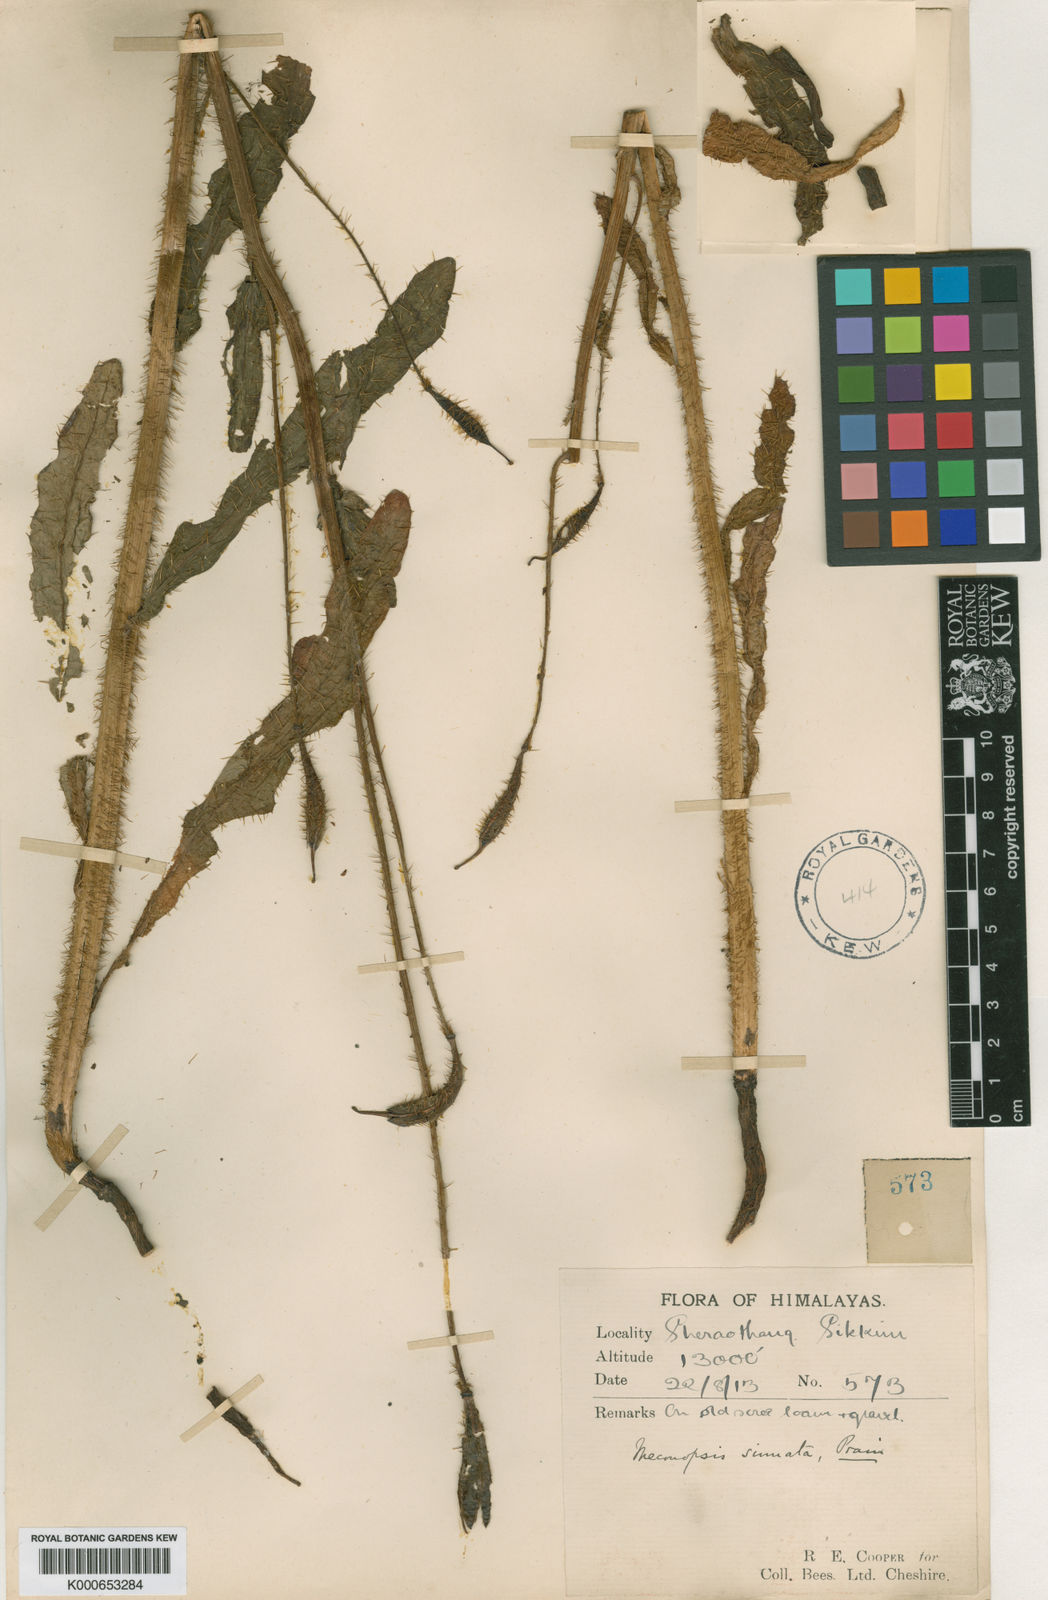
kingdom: Plantae
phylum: Tracheophyta
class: Magnoliopsida
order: Ranunculales
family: Papaveraceae
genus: Meconopsis
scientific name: Meconopsis sinuata
